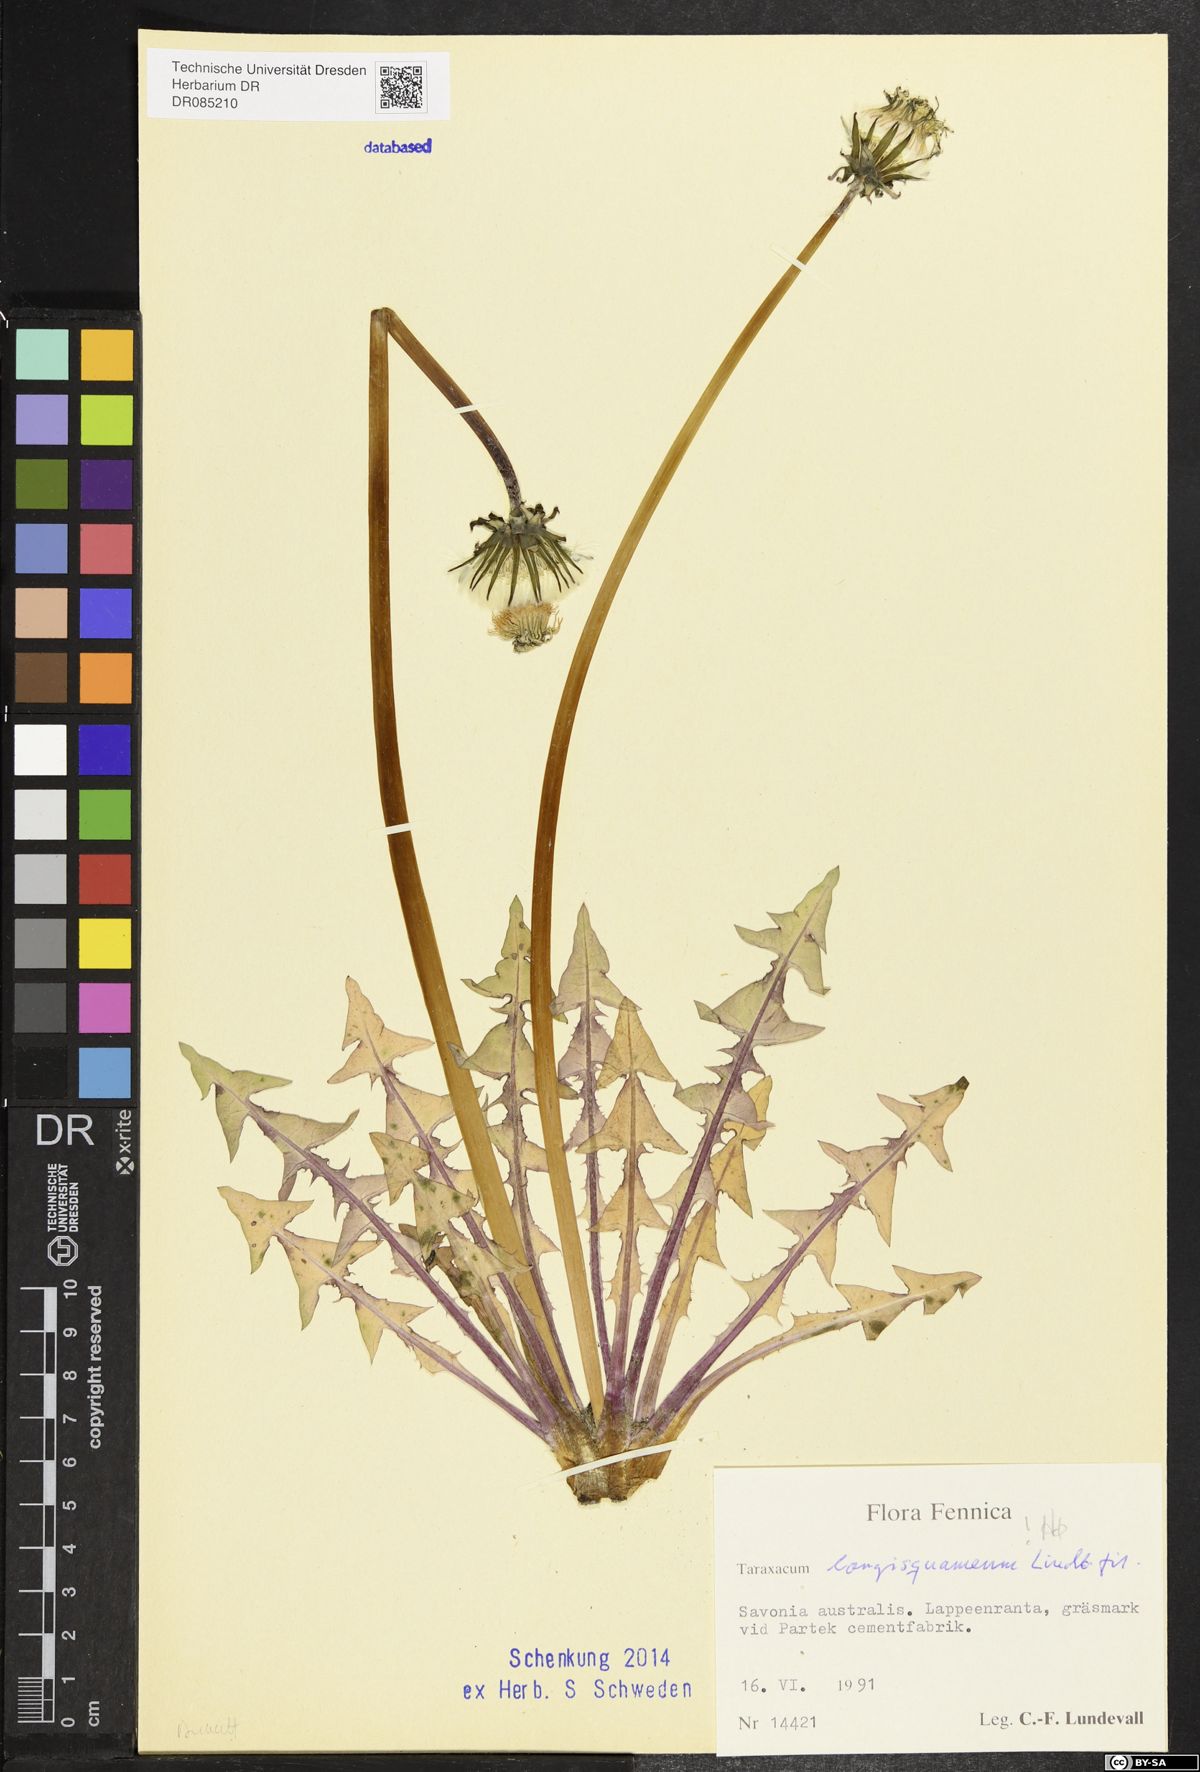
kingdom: Plantae
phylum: Tracheophyta
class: Magnoliopsida
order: Asterales
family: Asteraceae
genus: Taraxacum
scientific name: Taraxacum longisquameum
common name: Elongate-bracted dandelion
